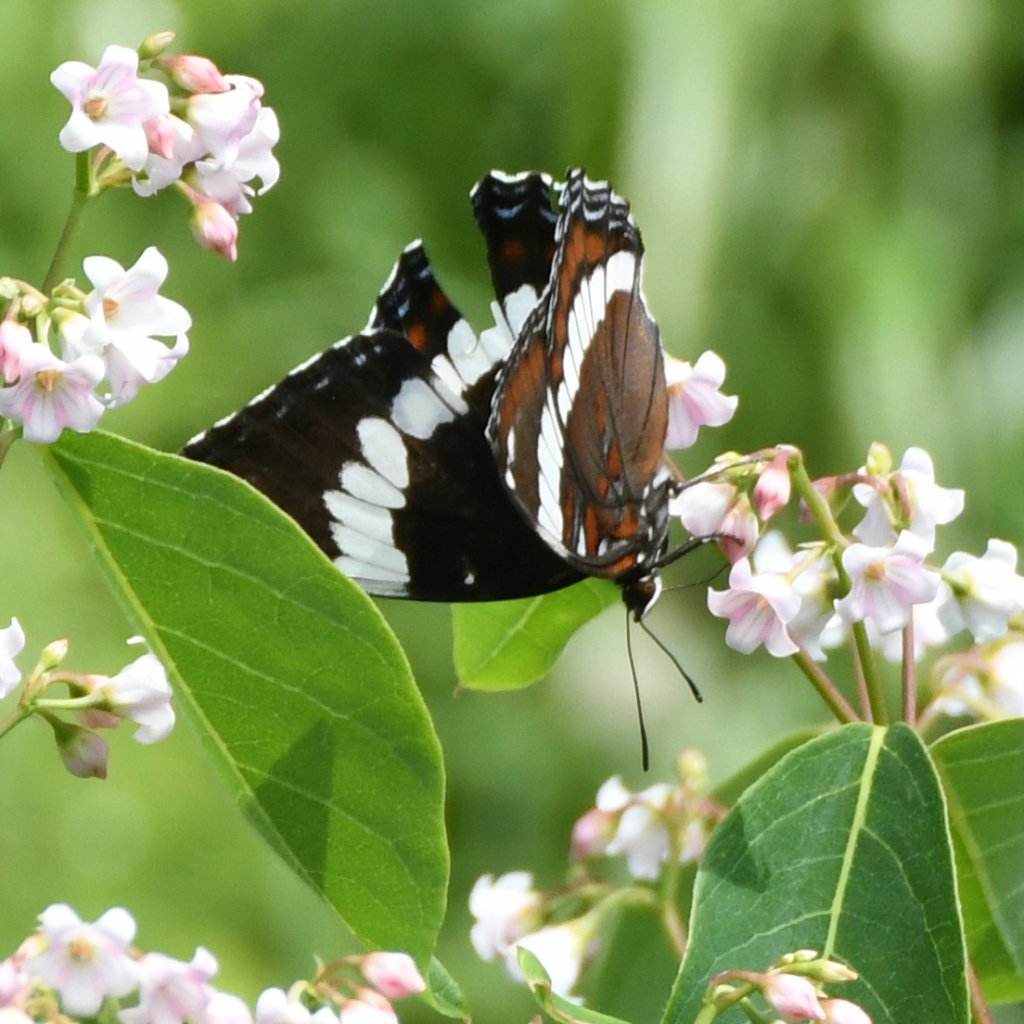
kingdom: Animalia
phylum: Arthropoda
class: Insecta
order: Lepidoptera
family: Nymphalidae
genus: Limenitis
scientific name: Limenitis arthemis
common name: Red-spotted Admiral
